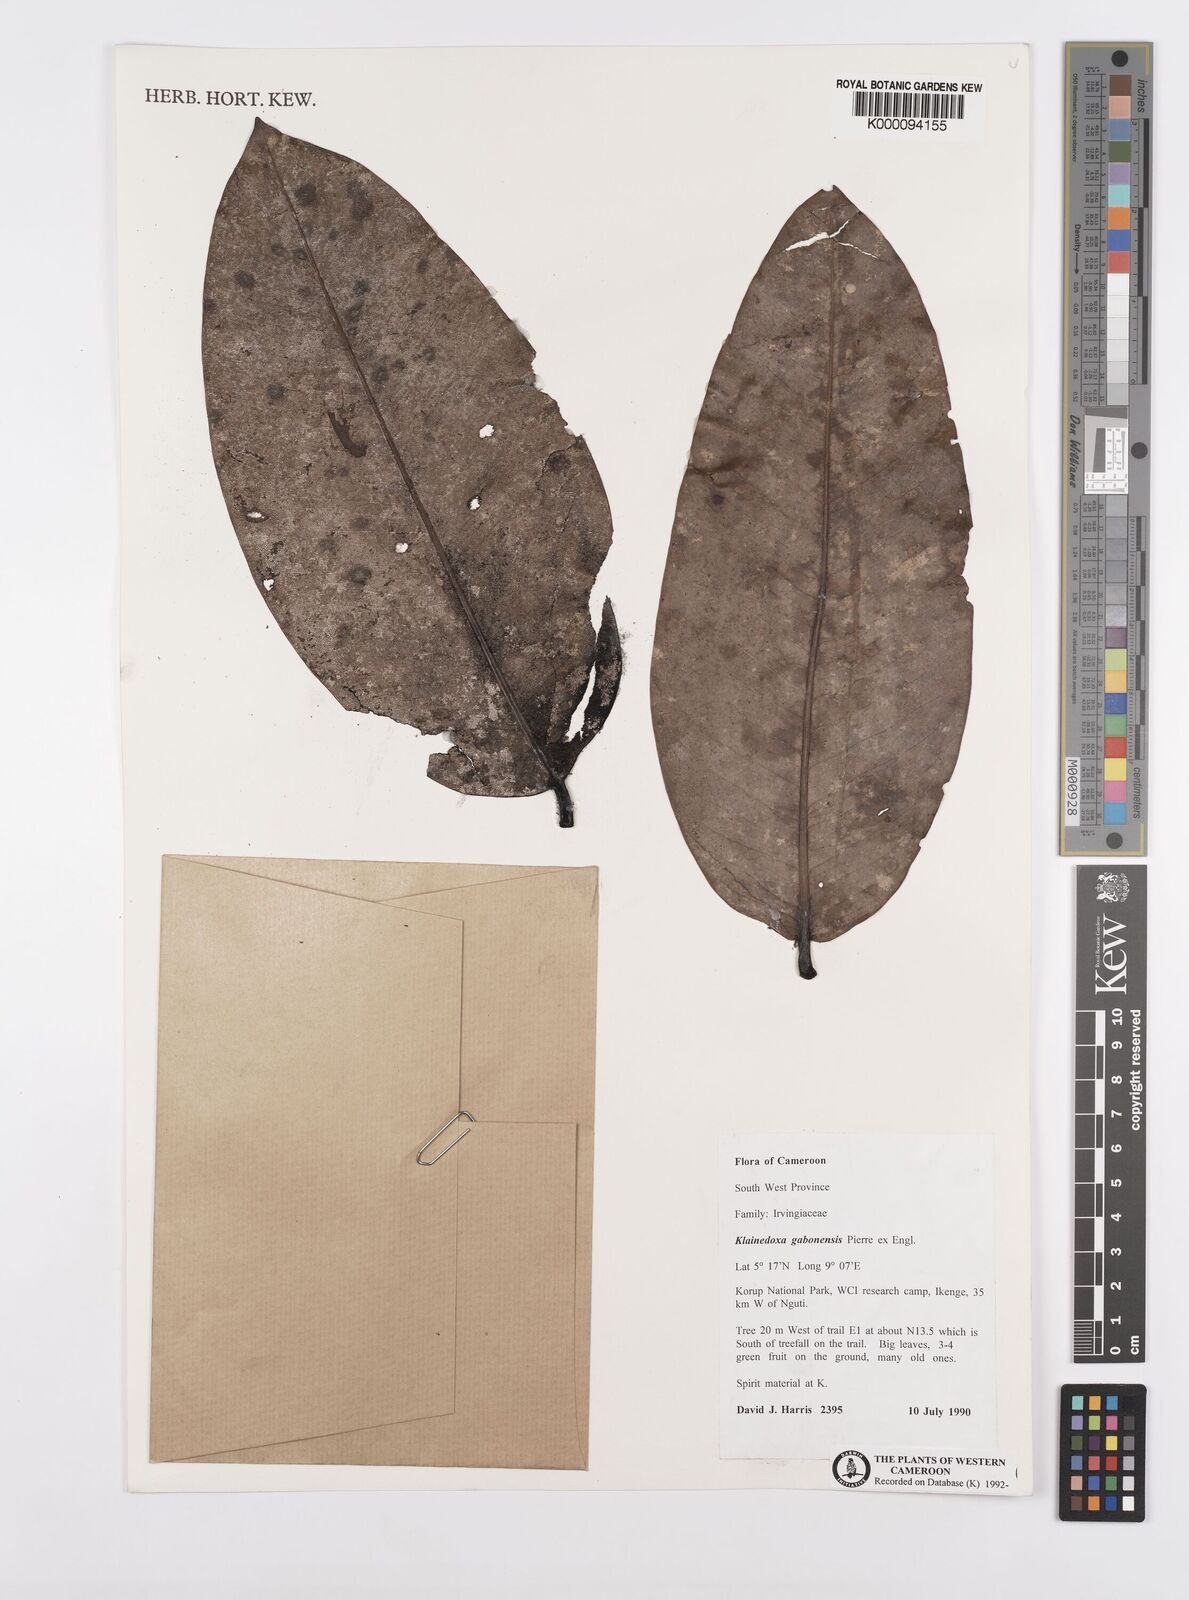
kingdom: Plantae
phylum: Tracheophyta
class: Magnoliopsida
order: Malpighiales
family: Irvingiaceae
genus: Klainedoxa
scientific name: Klainedoxa gabonensis
